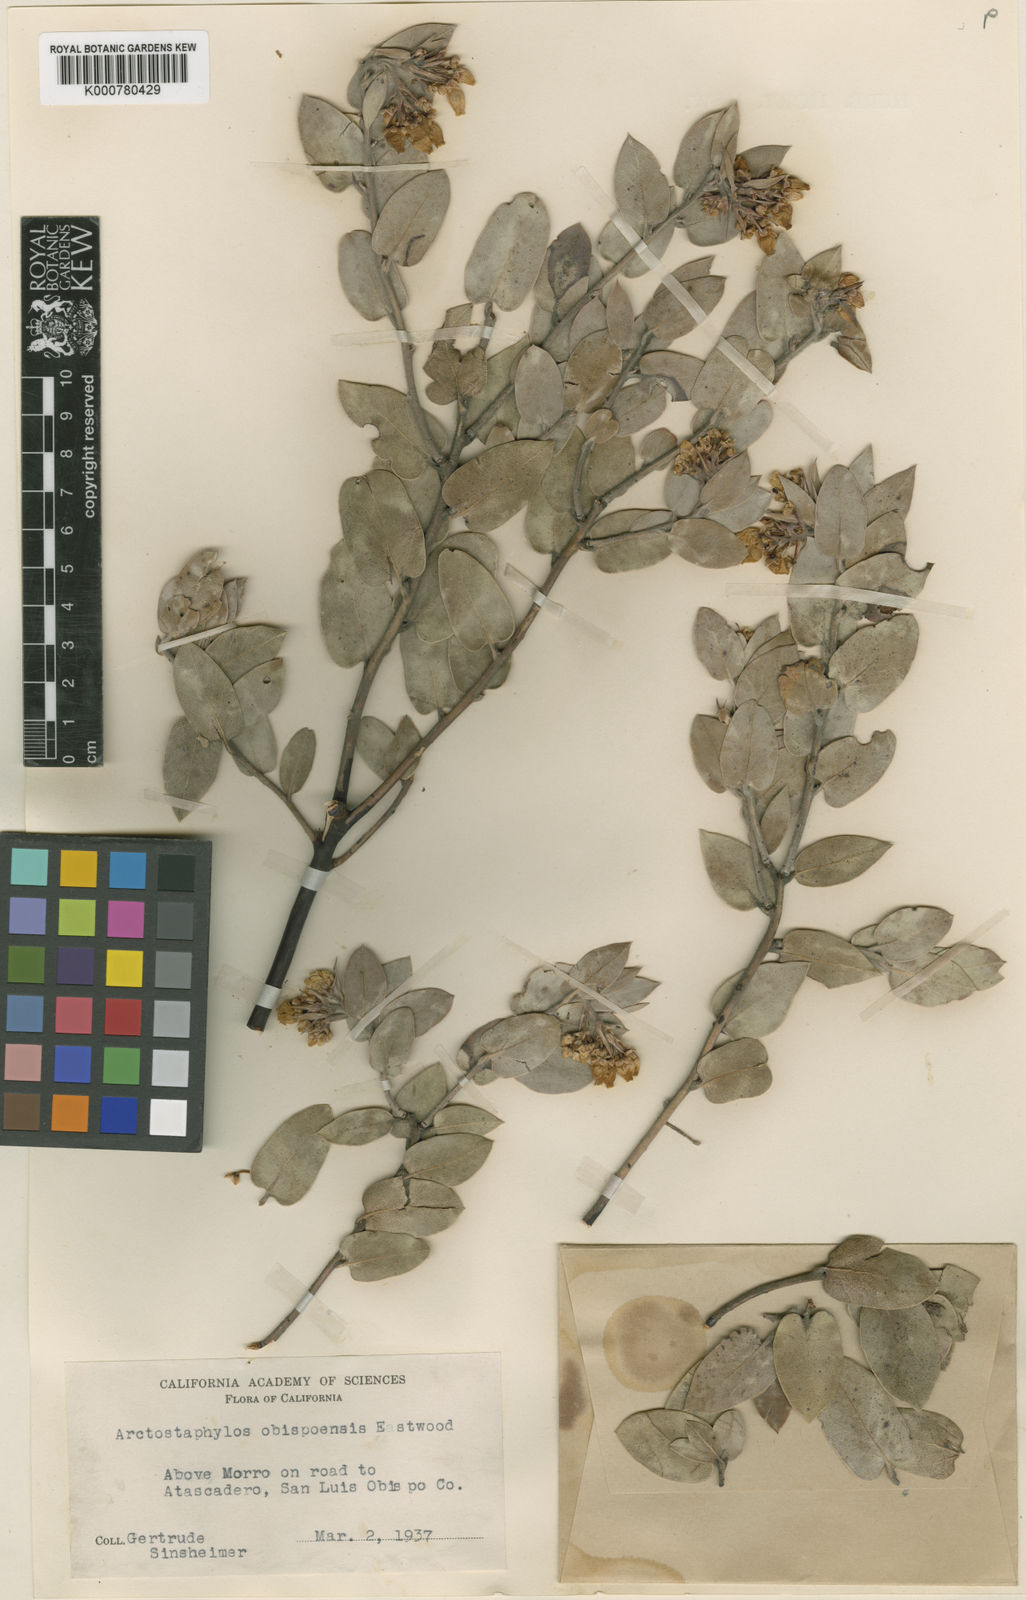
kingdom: Plantae
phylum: Tracheophyta
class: Magnoliopsida
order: Ericales
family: Ericaceae
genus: Arctostaphylos
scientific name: Arctostaphylos obispoensis
